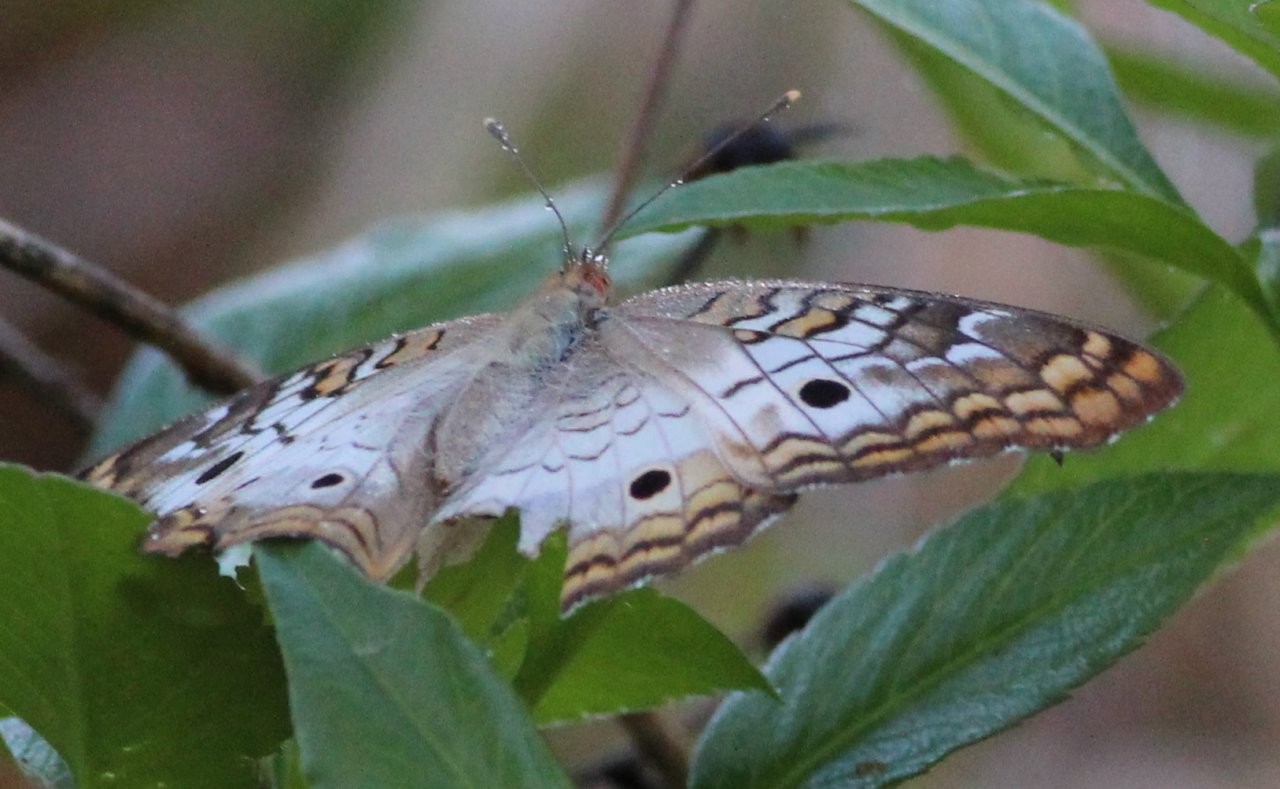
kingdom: Animalia
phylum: Arthropoda
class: Insecta
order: Lepidoptera
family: Nymphalidae
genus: Anartia
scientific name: Anartia jatrophae
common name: White Peacock
